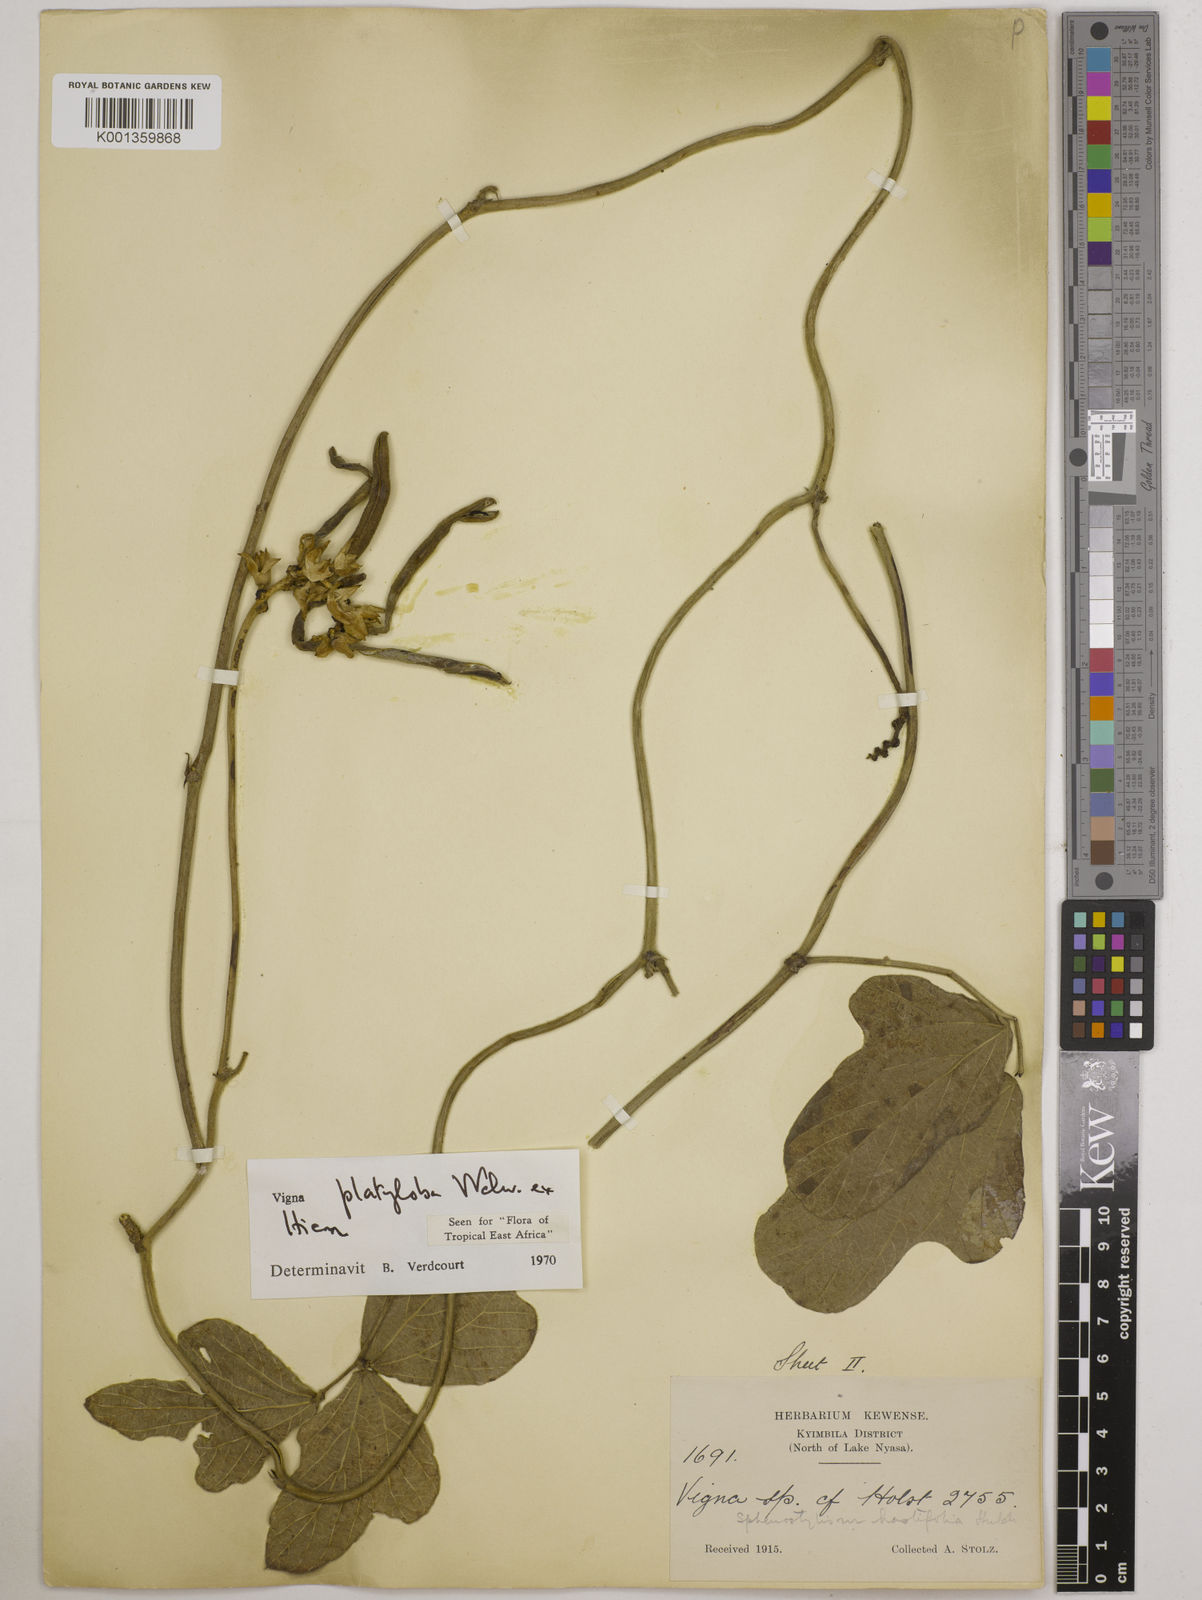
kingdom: Plantae
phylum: Tracheophyta
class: Magnoliopsida
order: Fabales
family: Fabaceae
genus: Vigna
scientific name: Vigna platyloba
